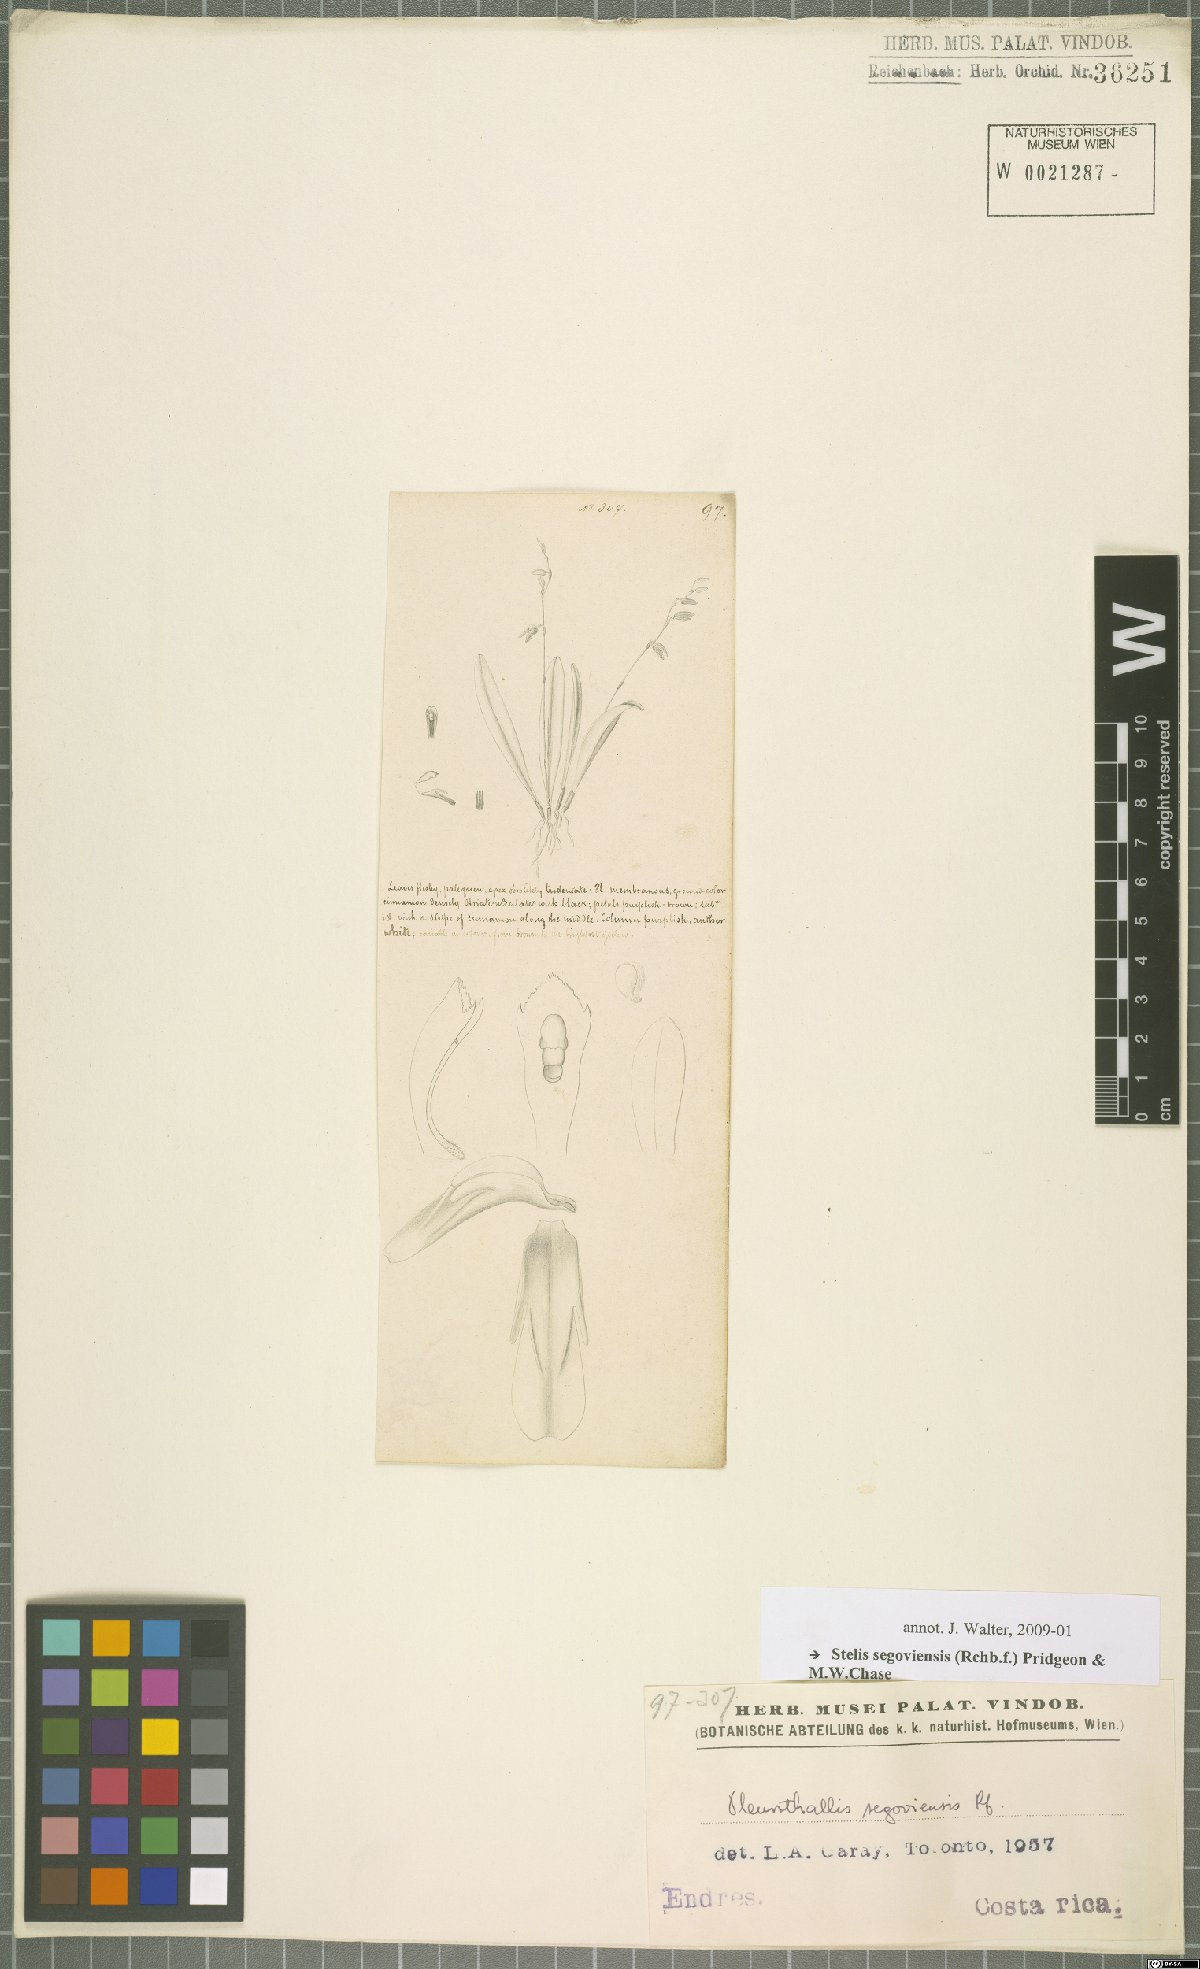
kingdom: Plantae
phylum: Tracheophyta
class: Liliopsida
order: Asparagales
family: Orchidaceae
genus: Stelis
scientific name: Stelis segoviensis
